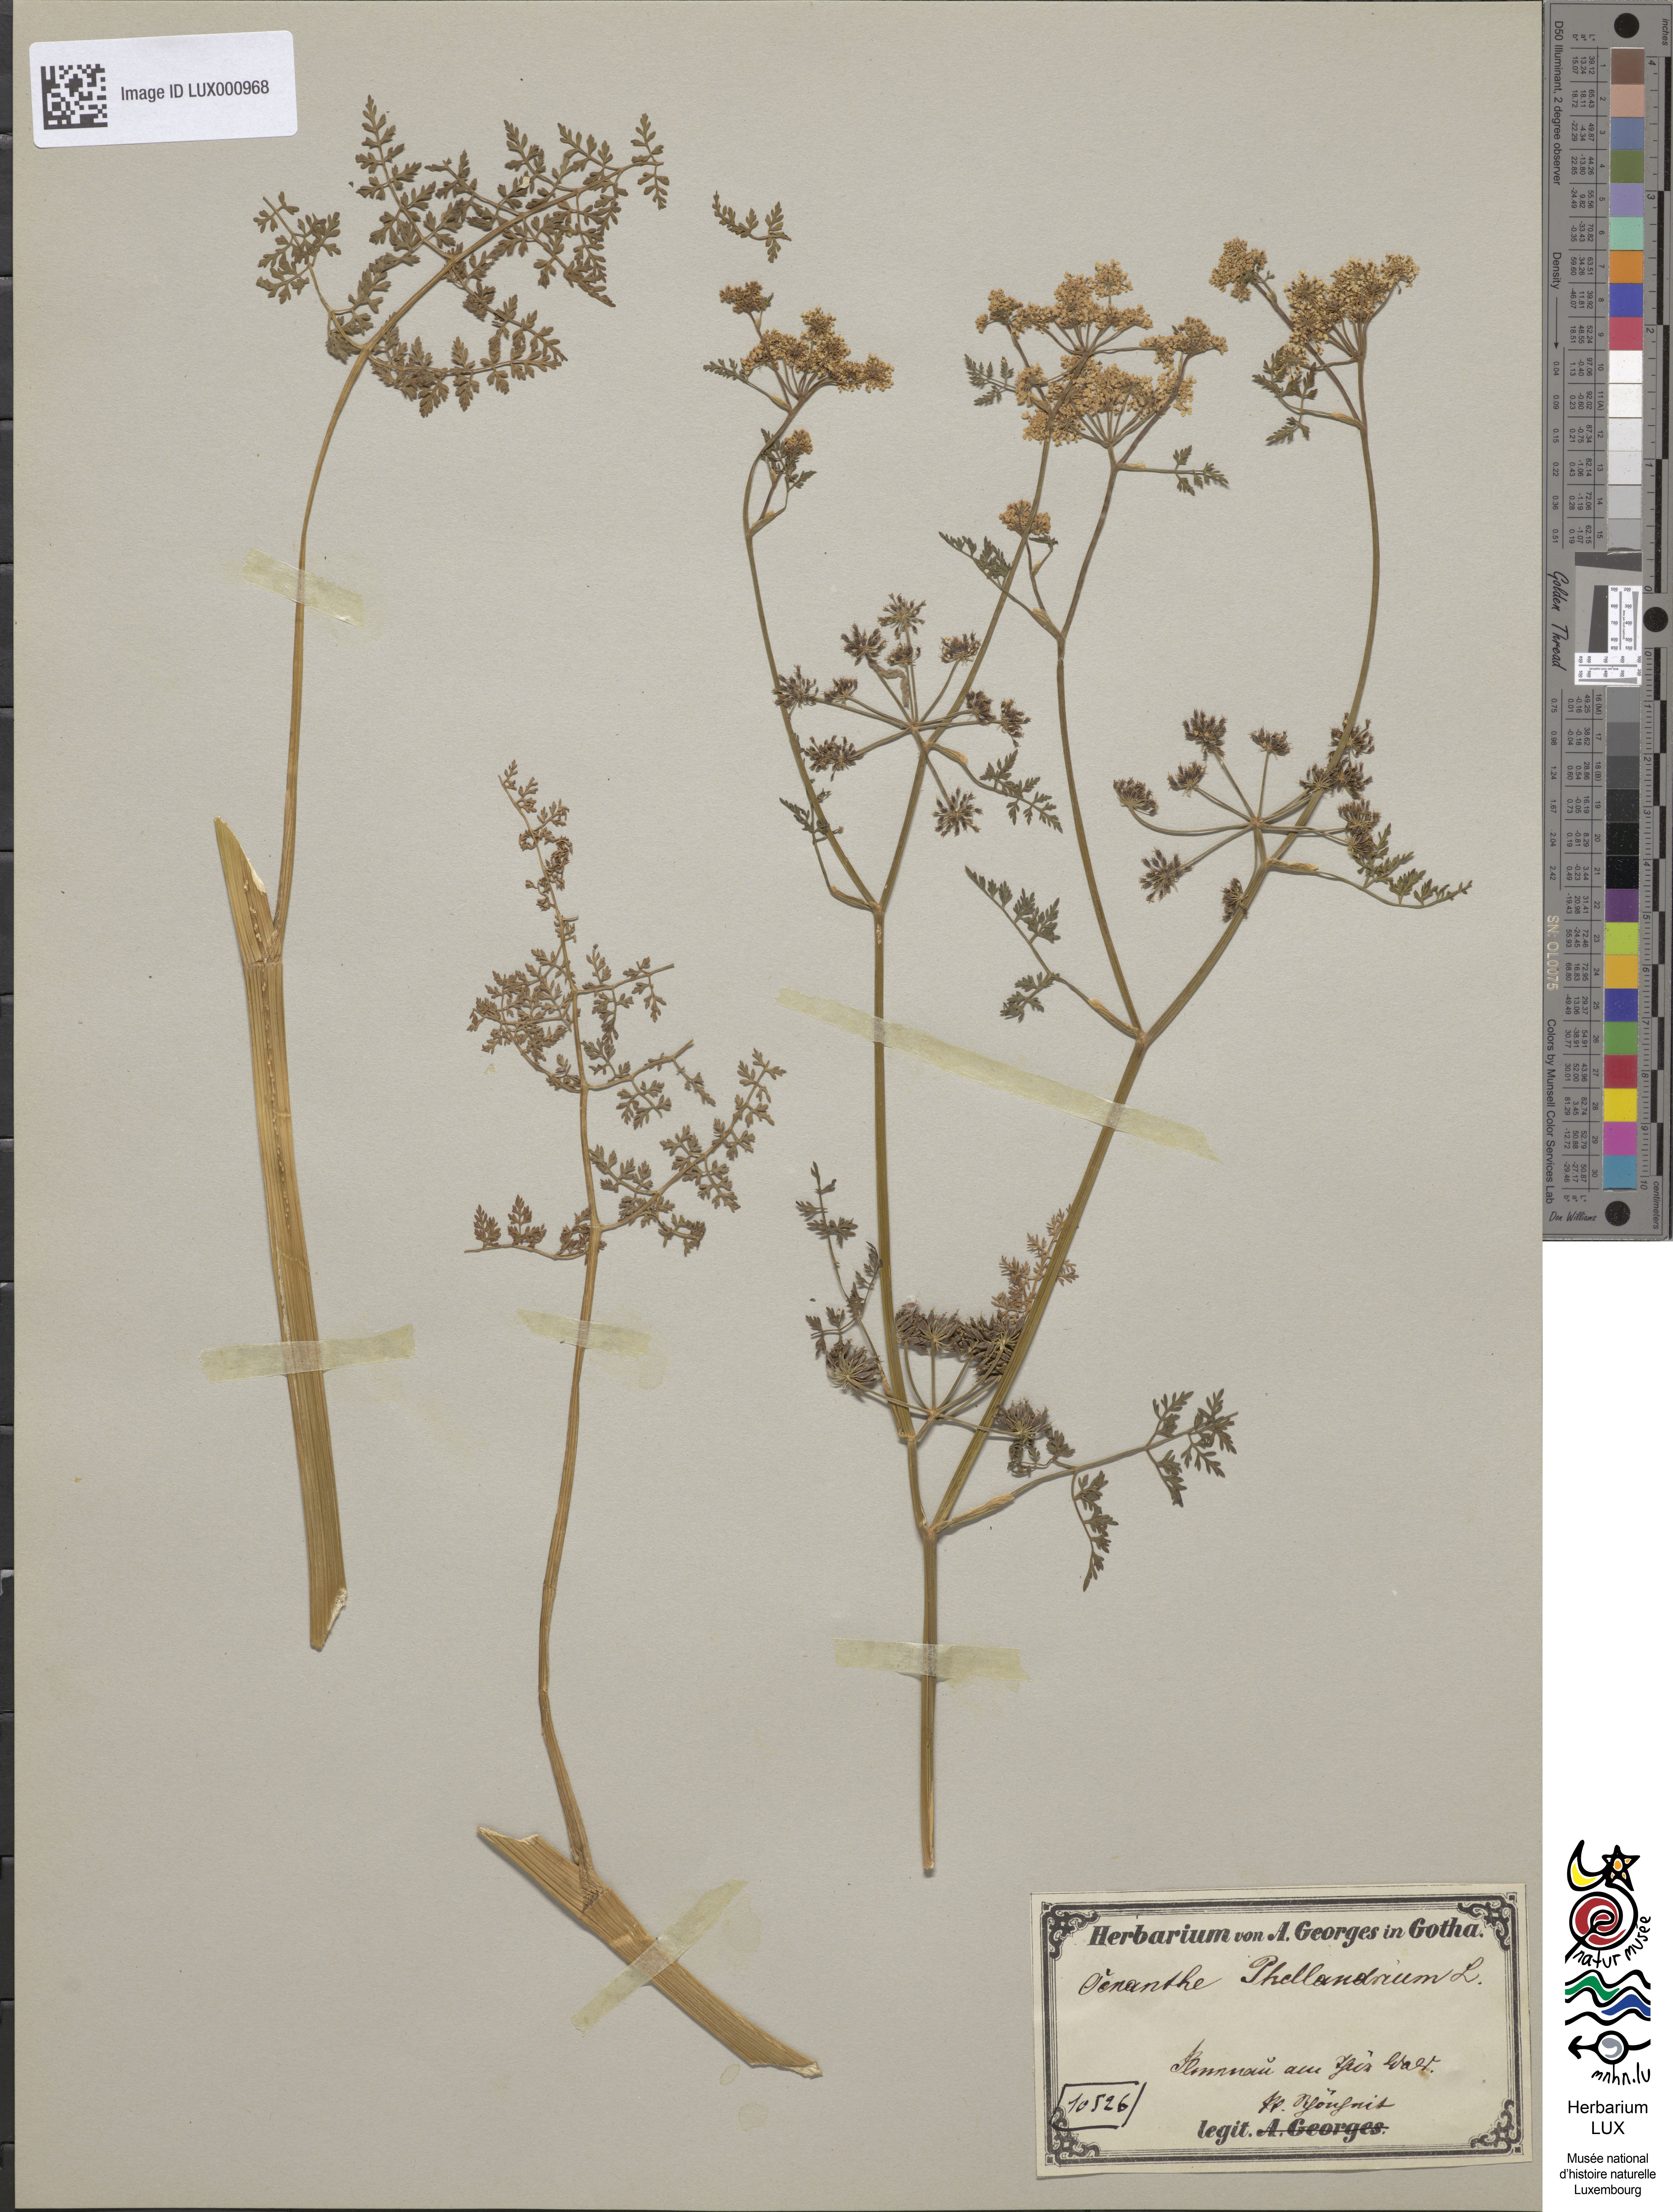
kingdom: Plantae
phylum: Tracheophyta
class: Magnoliopsida
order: Apiales
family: Apiaceae
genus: Oenanthe
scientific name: Oenanthe aquatica
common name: Fine-leaved water-dropwort
